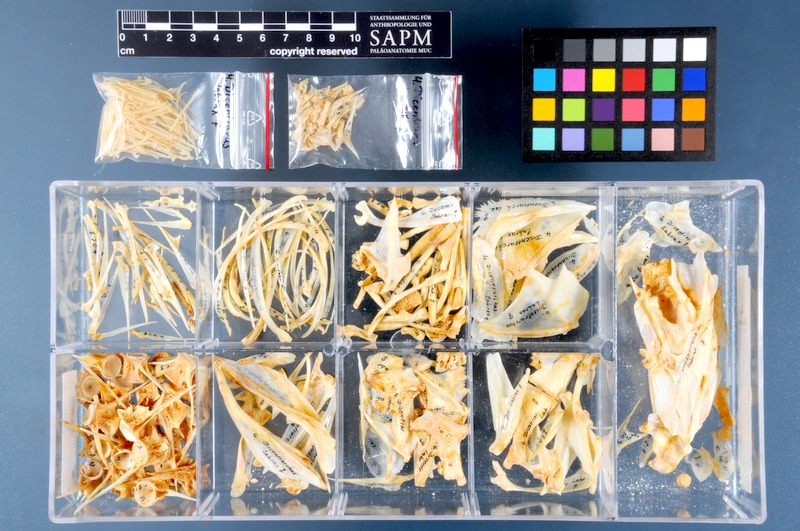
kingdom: Animalia
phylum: Chordata
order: Perciformes
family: Moronidae
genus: Dicentrarchus
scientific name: Dicentrarchus labrax
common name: European seabass
